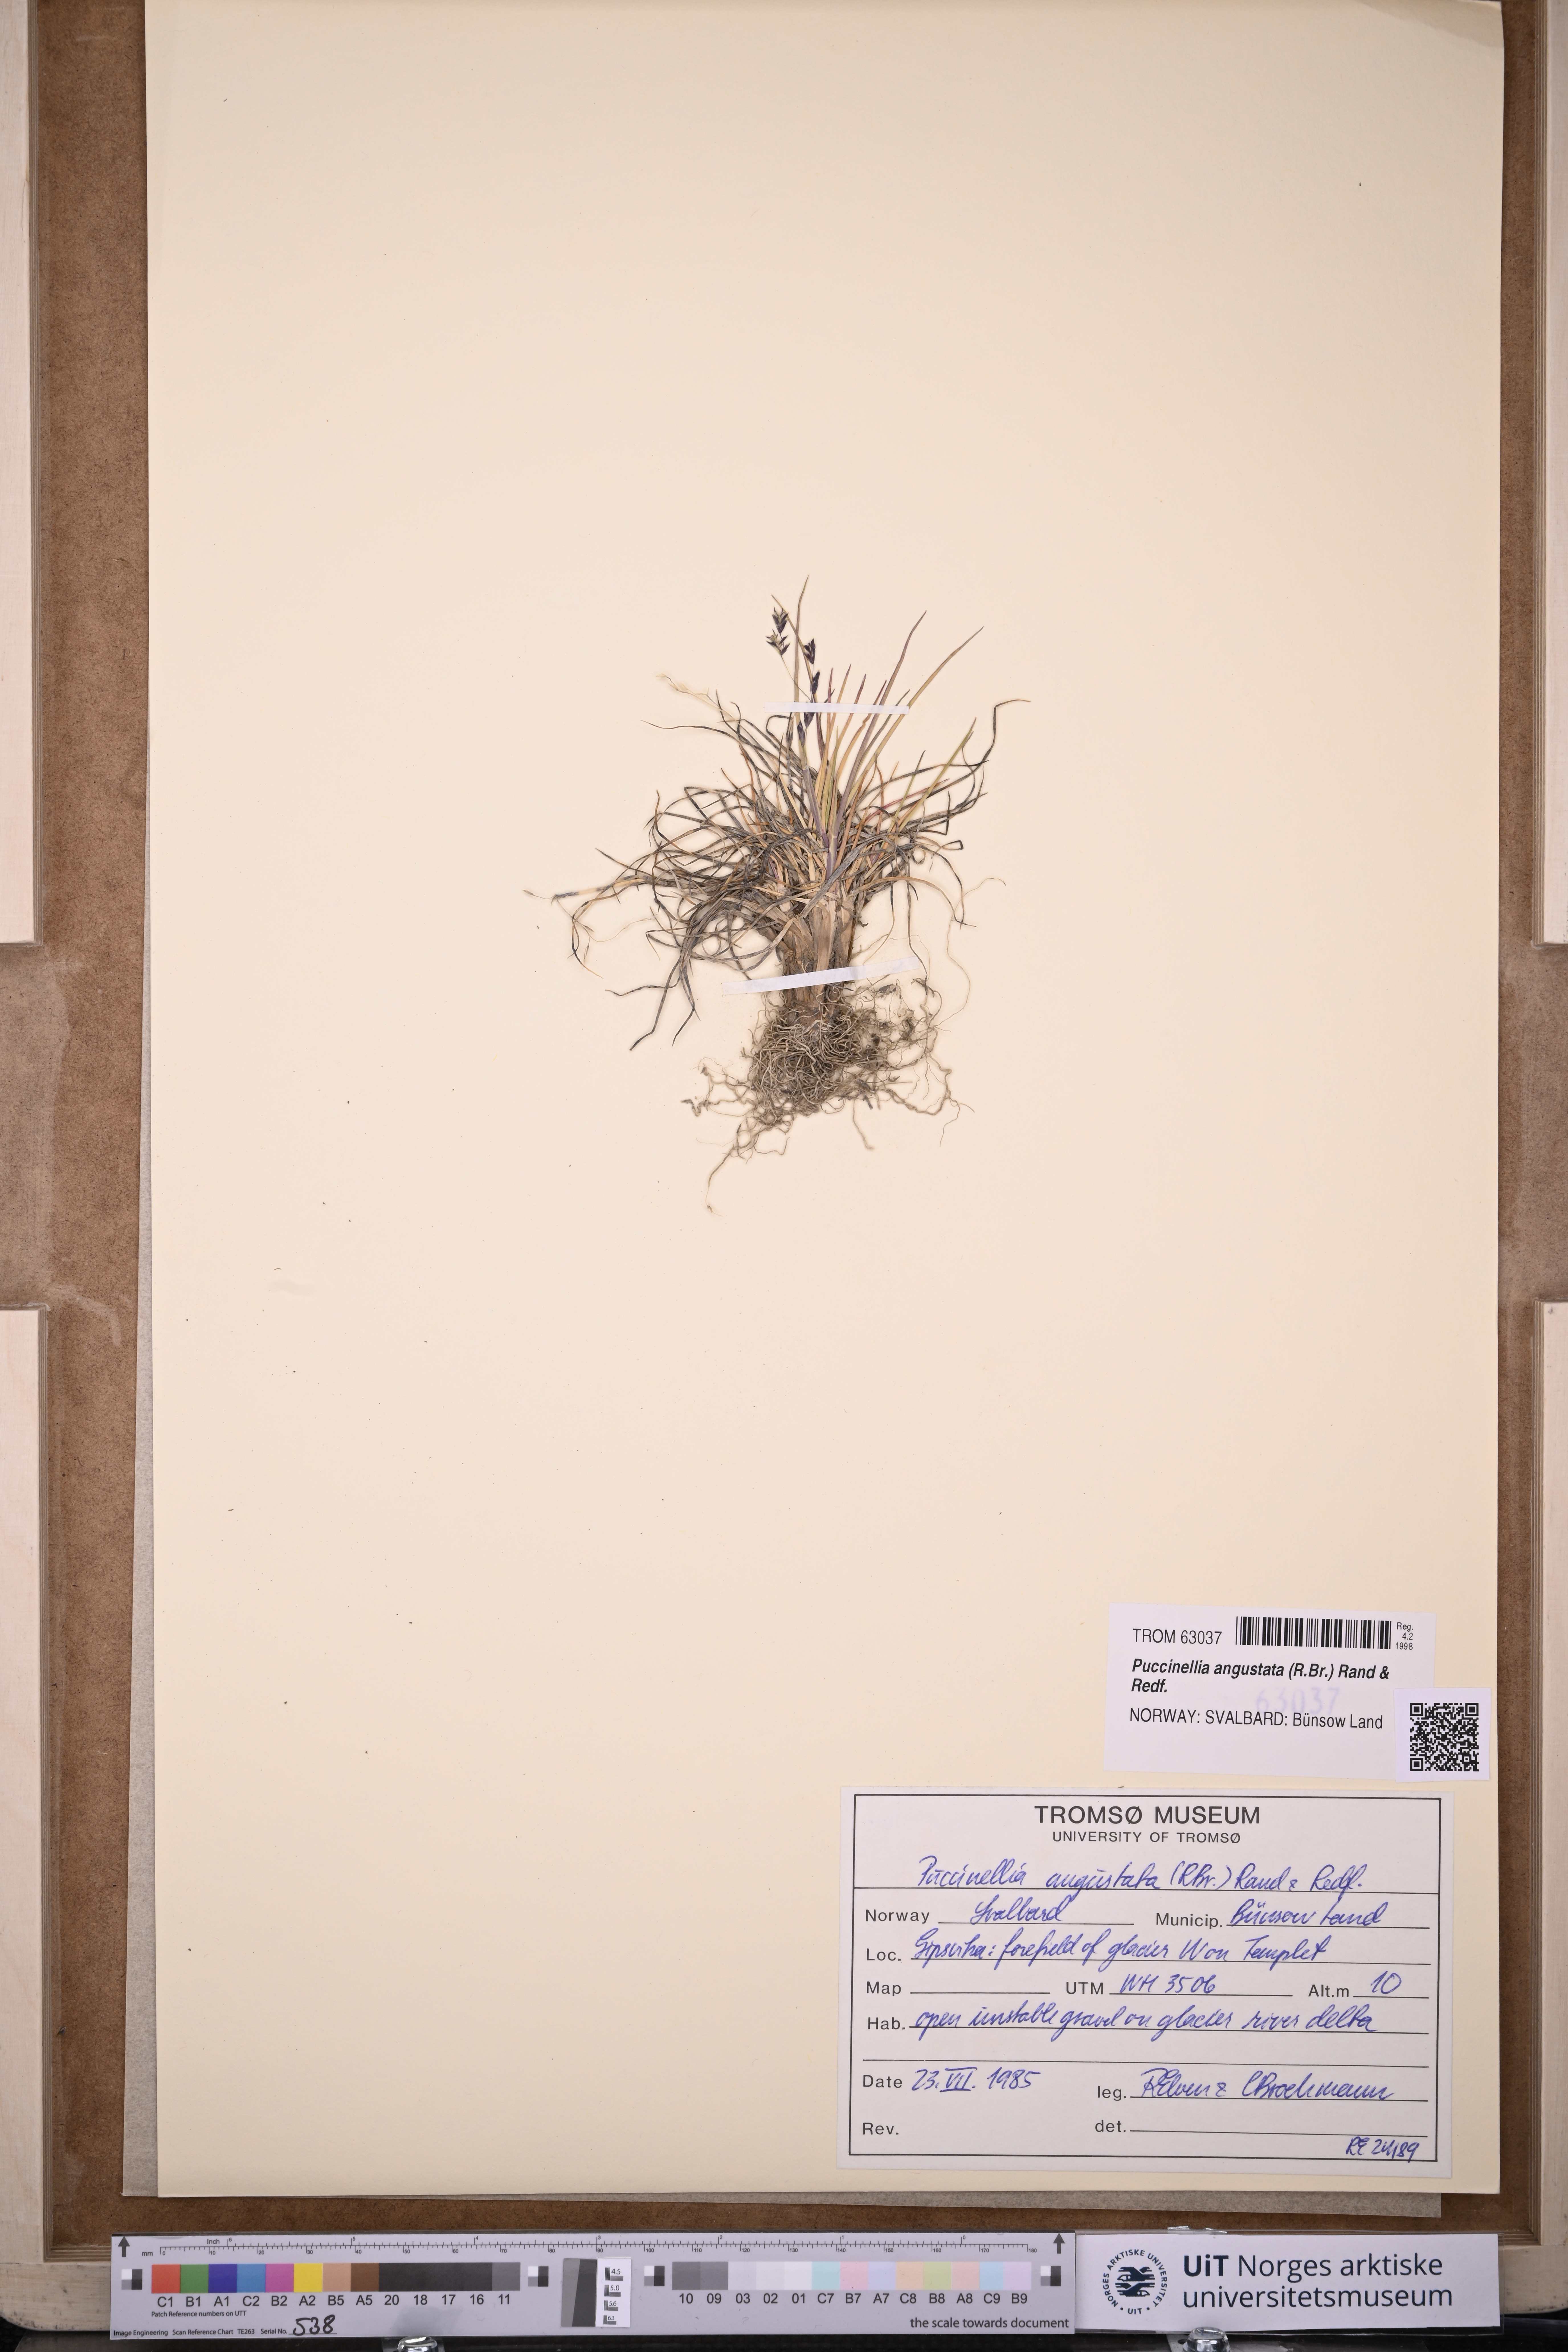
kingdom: Plantae
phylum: Tracheophyta
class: Liliopsida
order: Poales
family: Poaceae
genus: Puccinellia
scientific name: Puccinellia angustata
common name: Narrow alkaligrass
